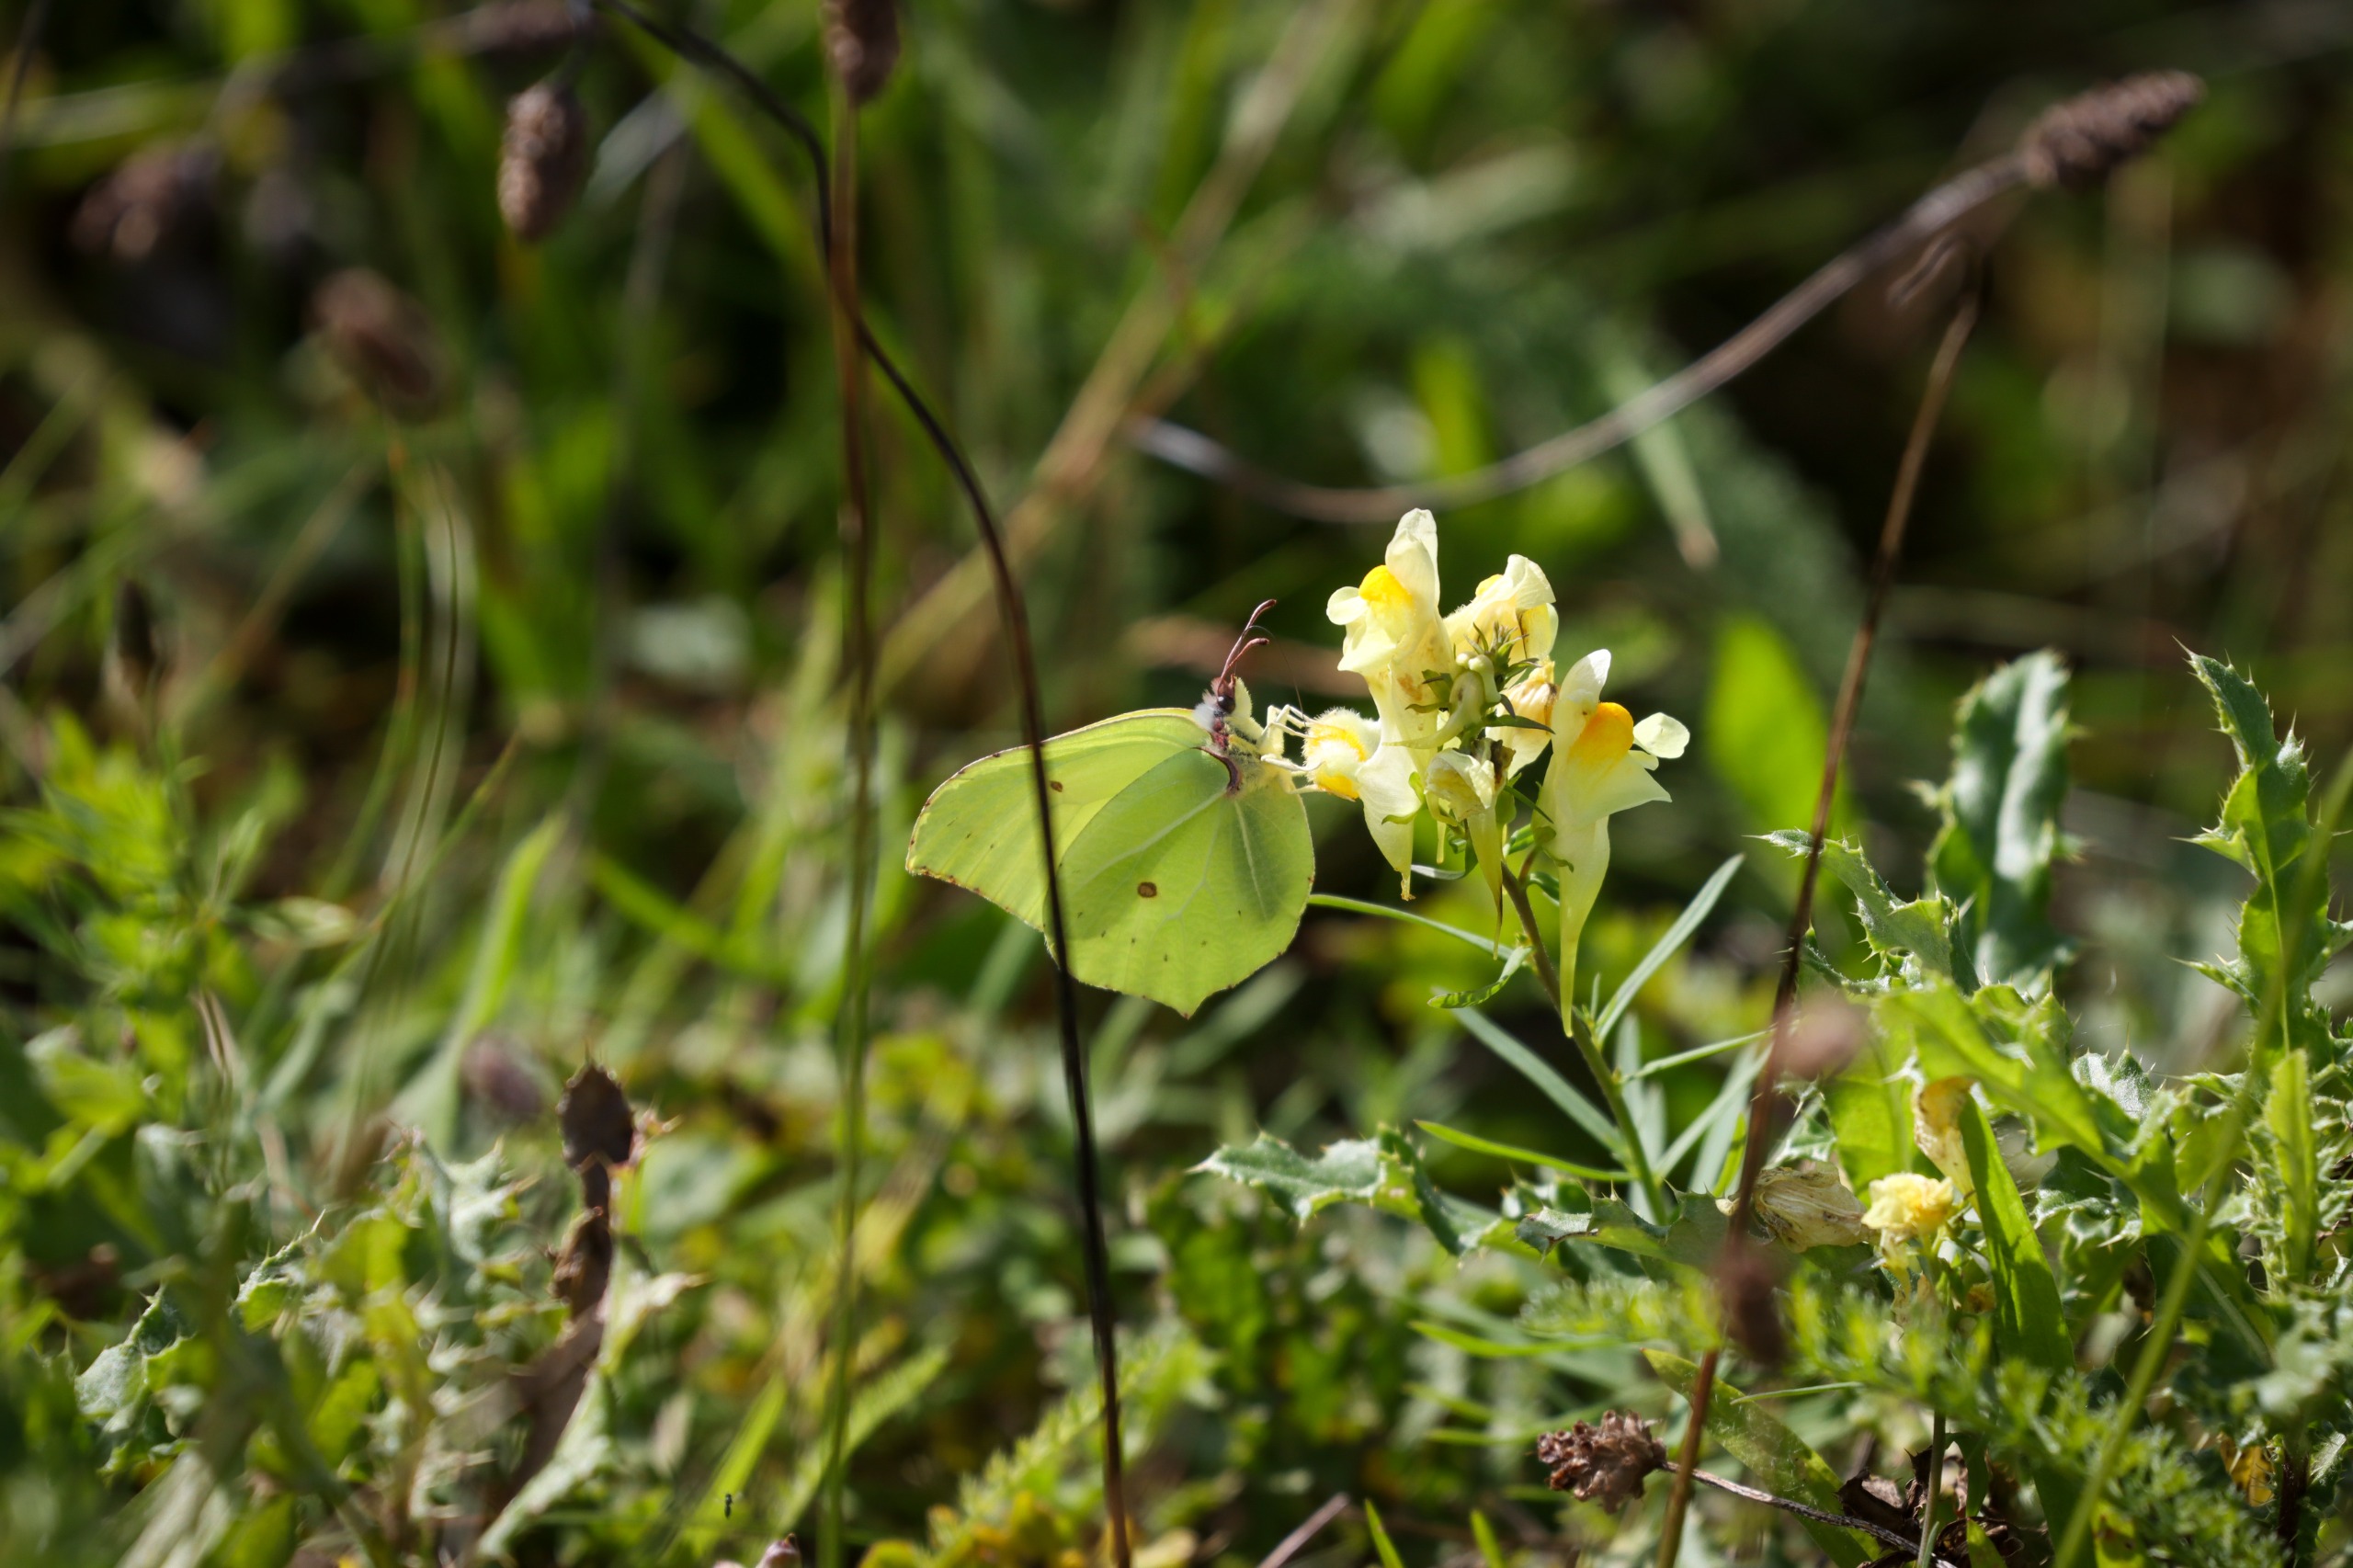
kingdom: Animalia
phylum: Arthropoda
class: Insecta
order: Lepidoptera
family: Pieridae
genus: Gonepteryx
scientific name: Gonepteryx rhamni
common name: Citronsommerfugl
